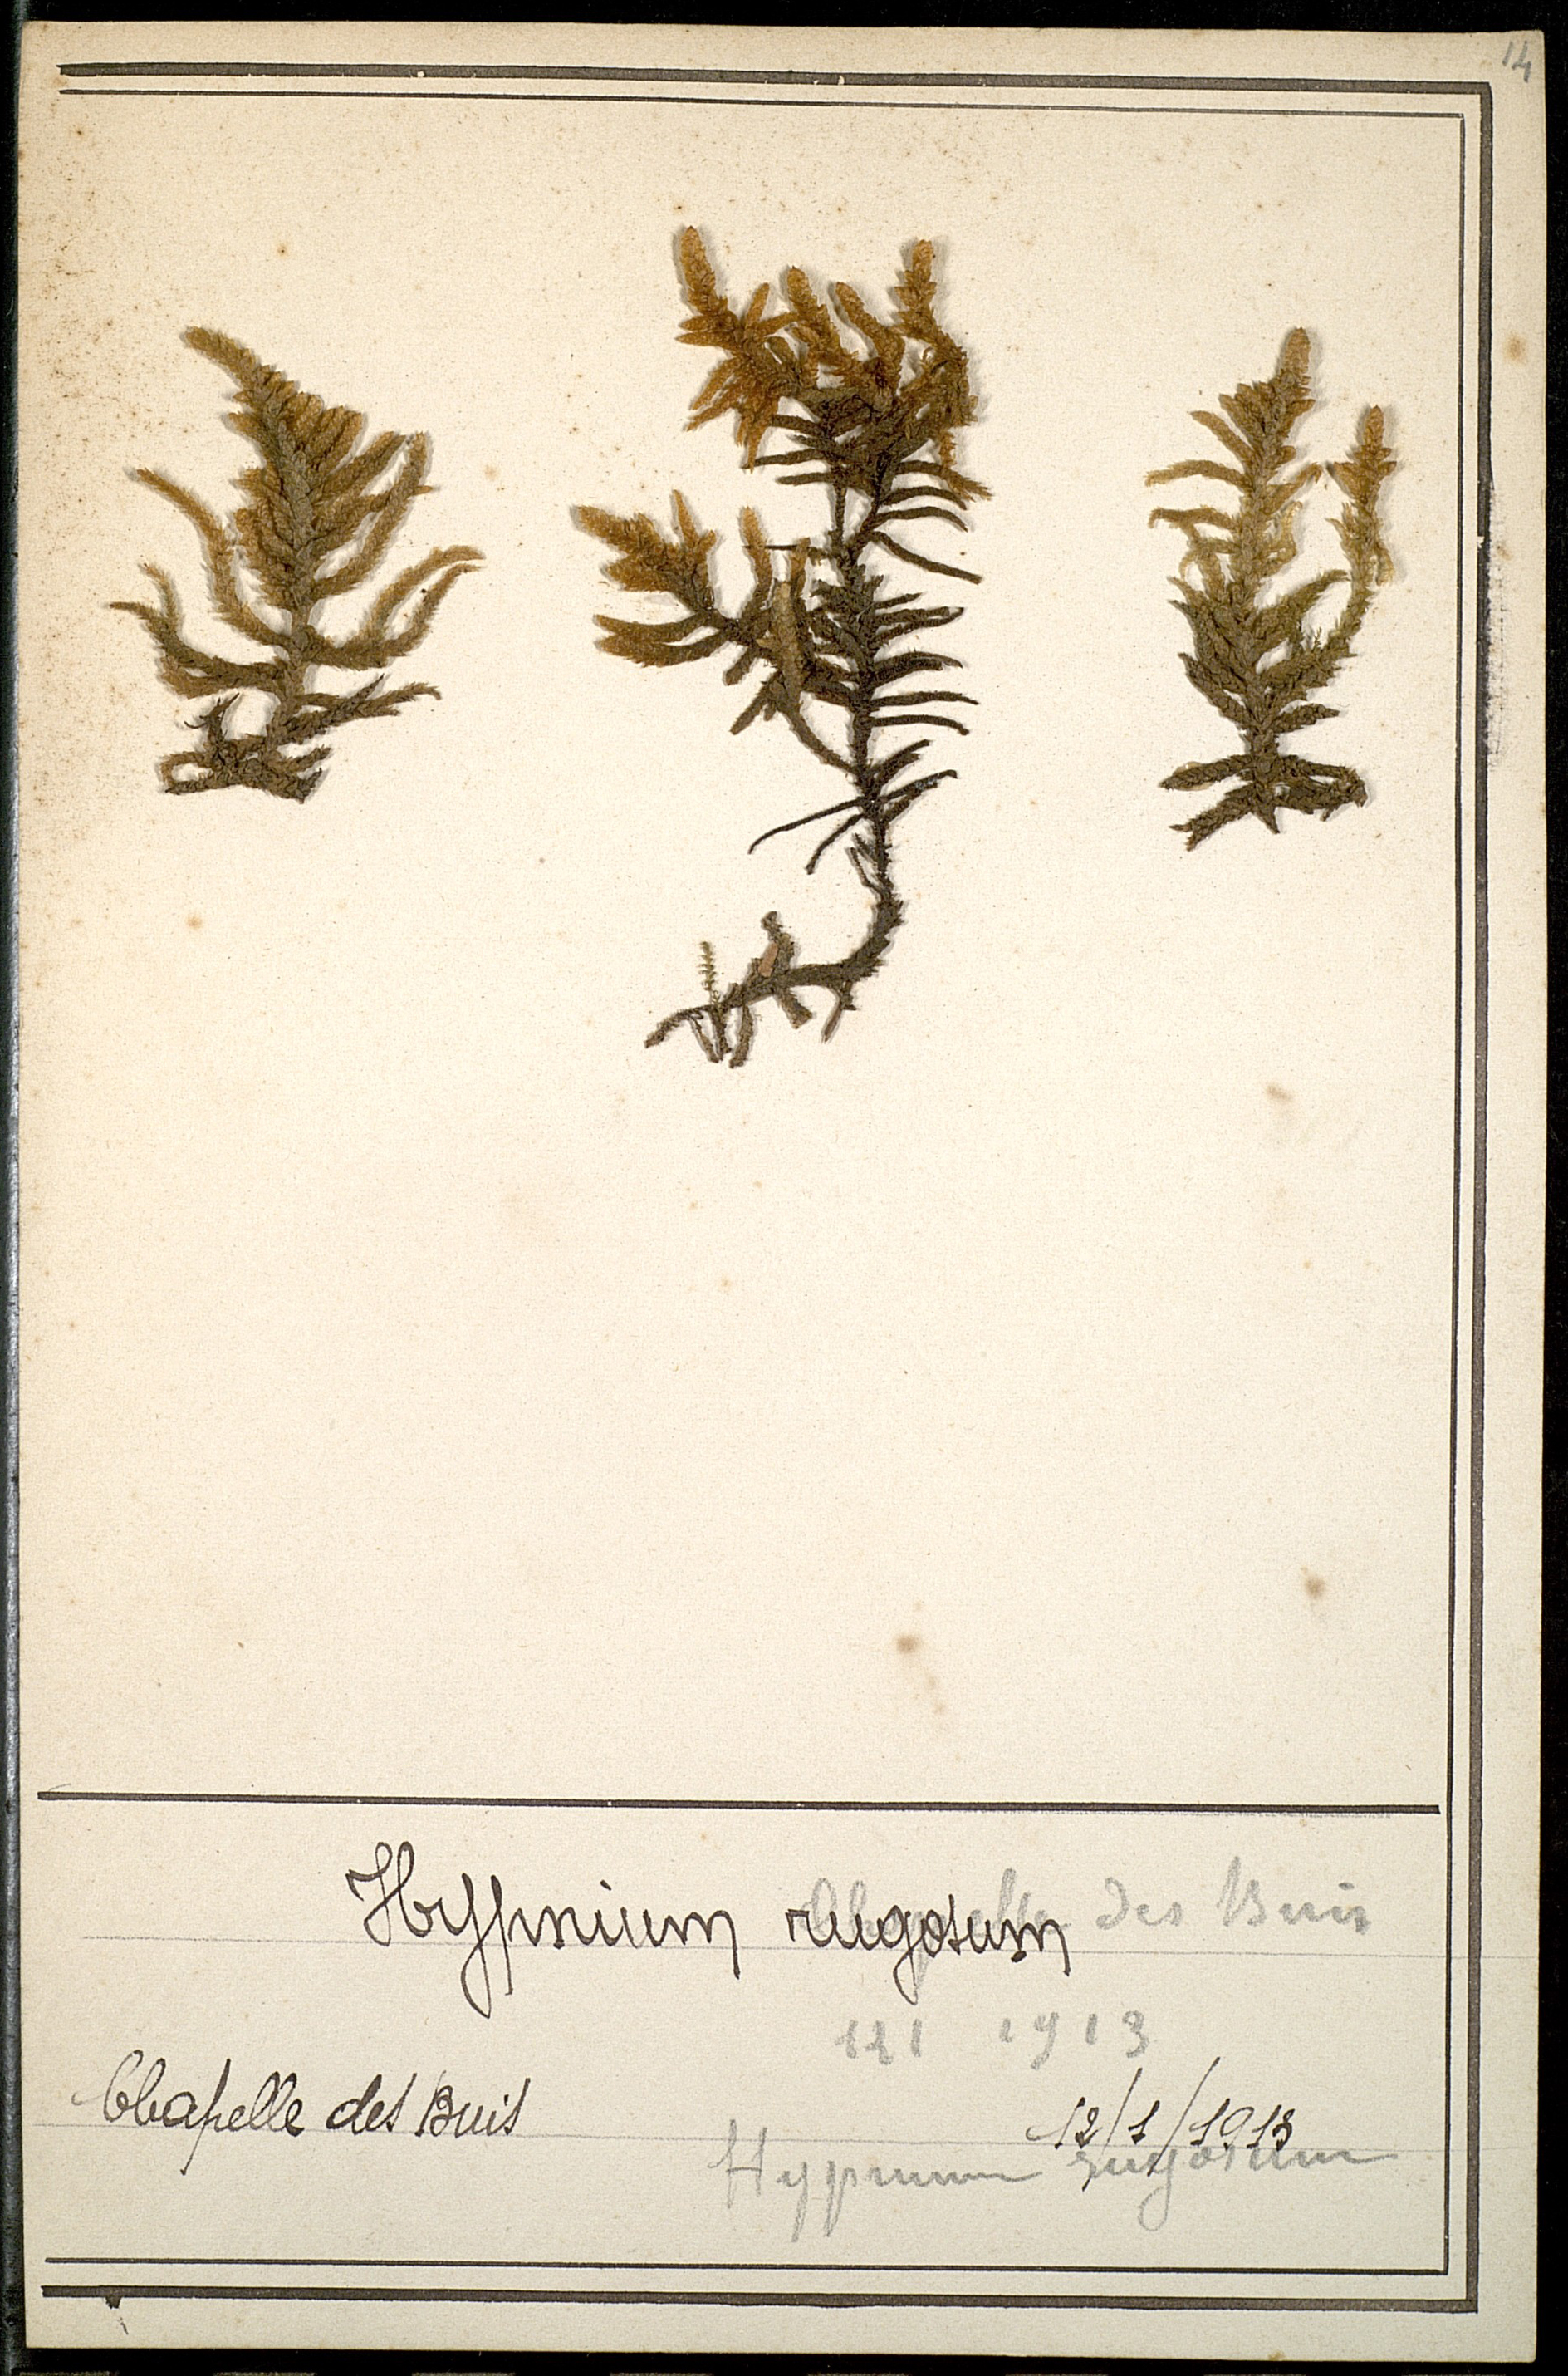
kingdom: Plantae
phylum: Bryophyta
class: Bryopsida
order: Hypnales
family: Rhytidiaceae
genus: Rhytidium
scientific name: Rhytidium rugosum
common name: Wrinkle-leaved moss
